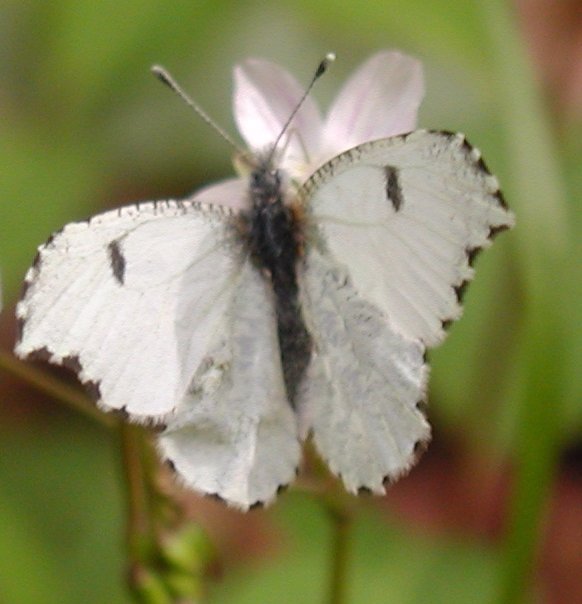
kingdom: Animalia
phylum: Arthropoda
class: Insecta
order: Lepidoptera
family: Pieridae
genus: Anthocharis
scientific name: Anthocharis midea
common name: Falcate Orangetip
